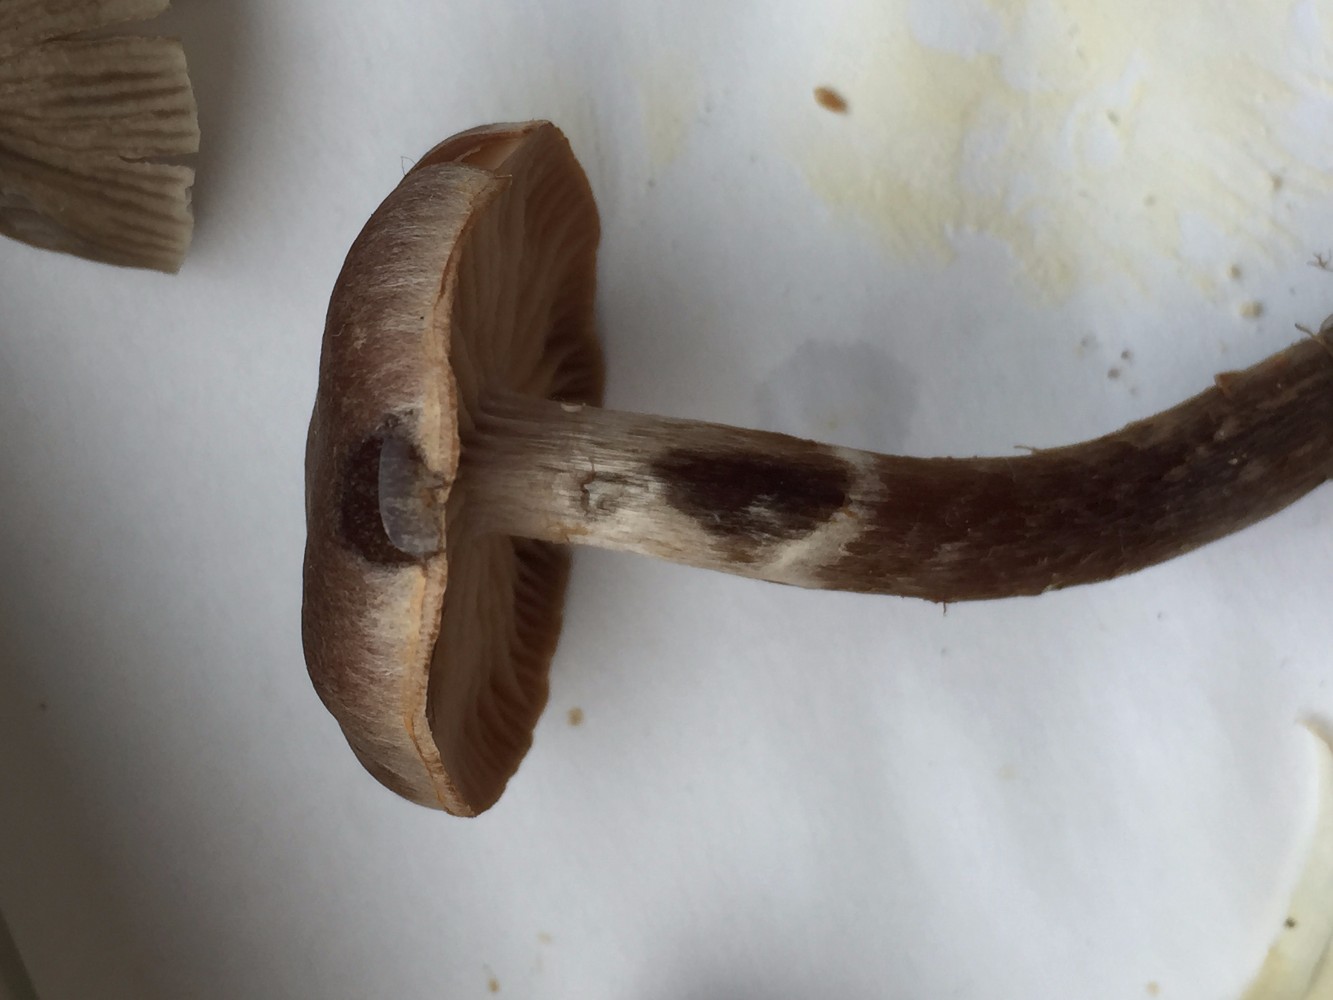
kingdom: Fungi
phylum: Basidiomycota
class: Agaricomycetes
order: Agaricales
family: Cortinariaceae
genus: Cortinarius
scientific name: Cortinarius
